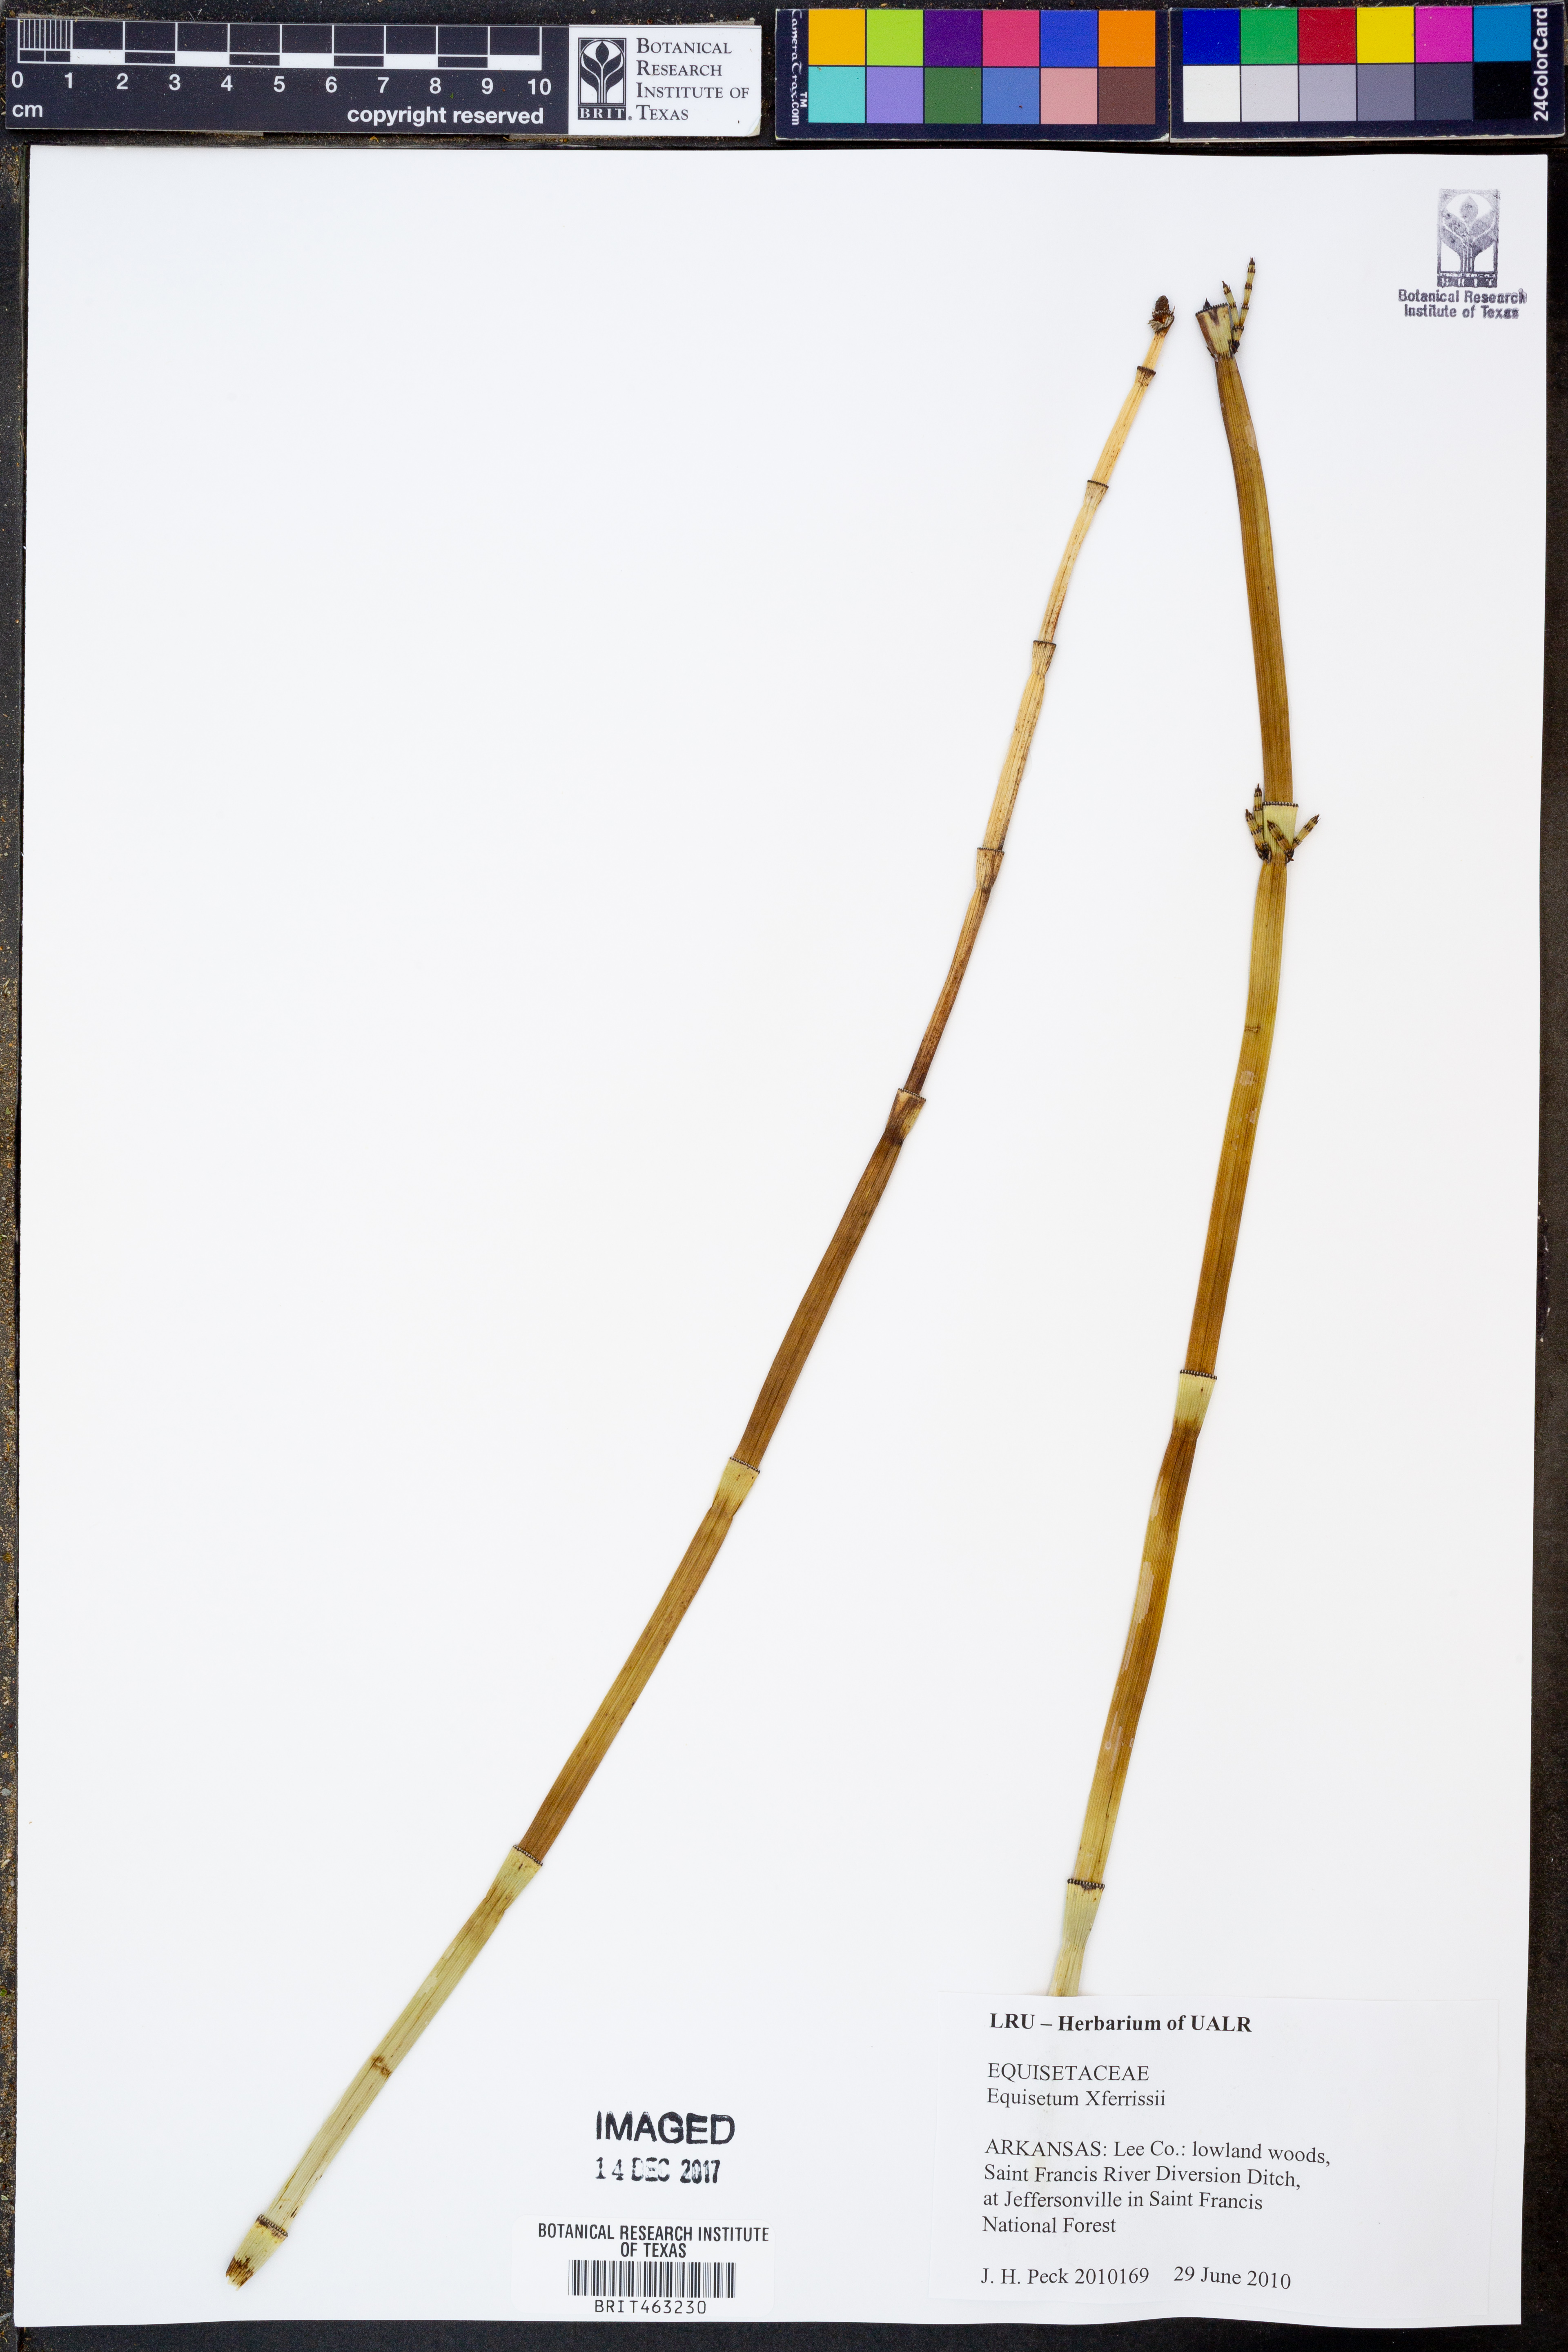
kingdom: Plantae
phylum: Tracheophyta
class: Polypodiopsida
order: Equisetales
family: Equisetaceae
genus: Equisetum
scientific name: Equisetum ferrissii
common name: Ferriss' horsetail
